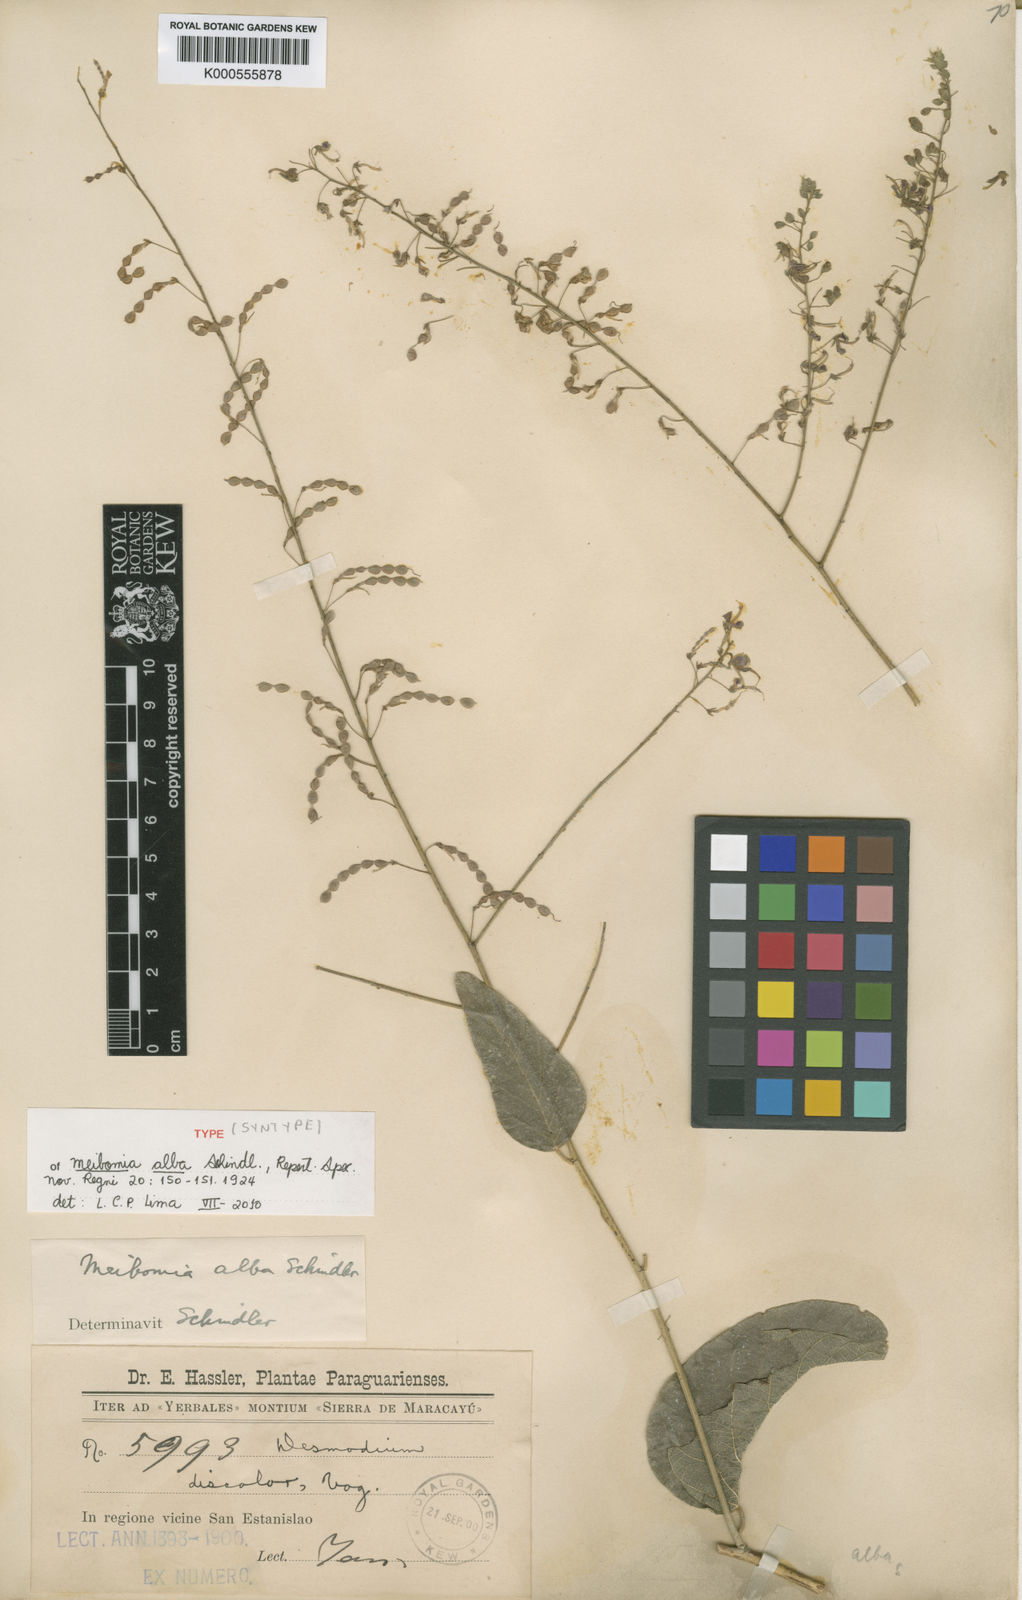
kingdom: Plantae
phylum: Tracheophyta
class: Magnoliopsida
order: Fabales
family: Fabaceae
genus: Desmodium
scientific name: Desmodium hassleri
